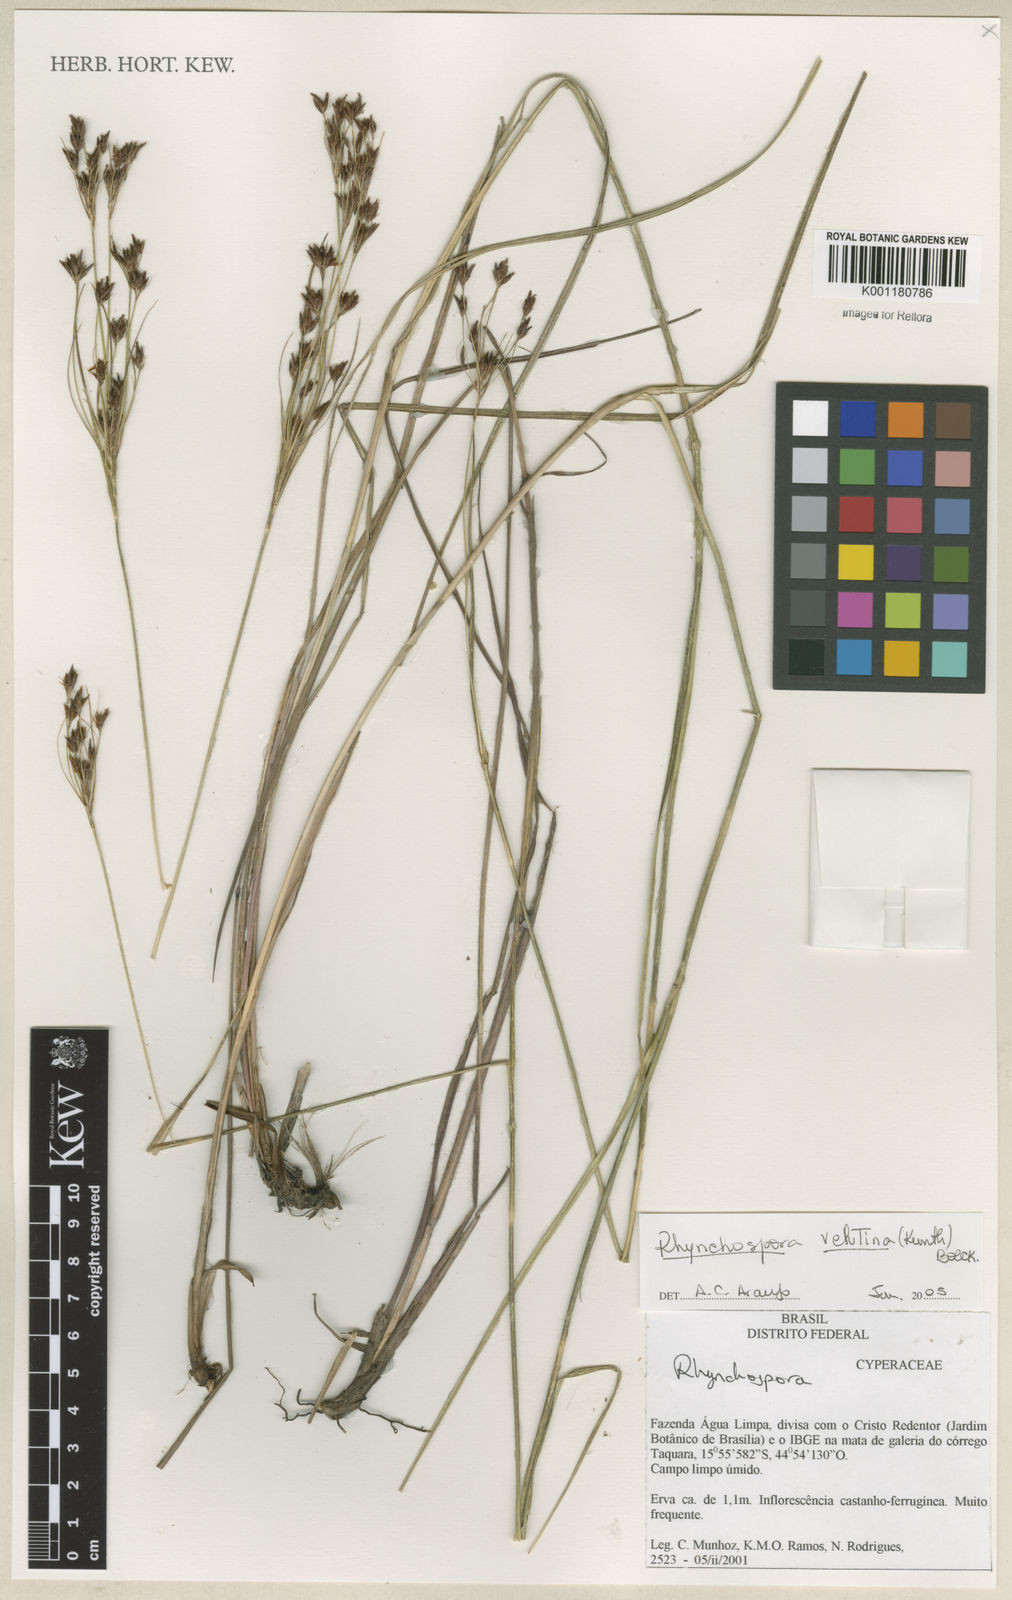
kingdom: Plantae
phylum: Tracheophyta
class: Liliopsida
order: Poales
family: Cyperaceae
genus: Rhynchospora
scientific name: Rhynchospora velutina
